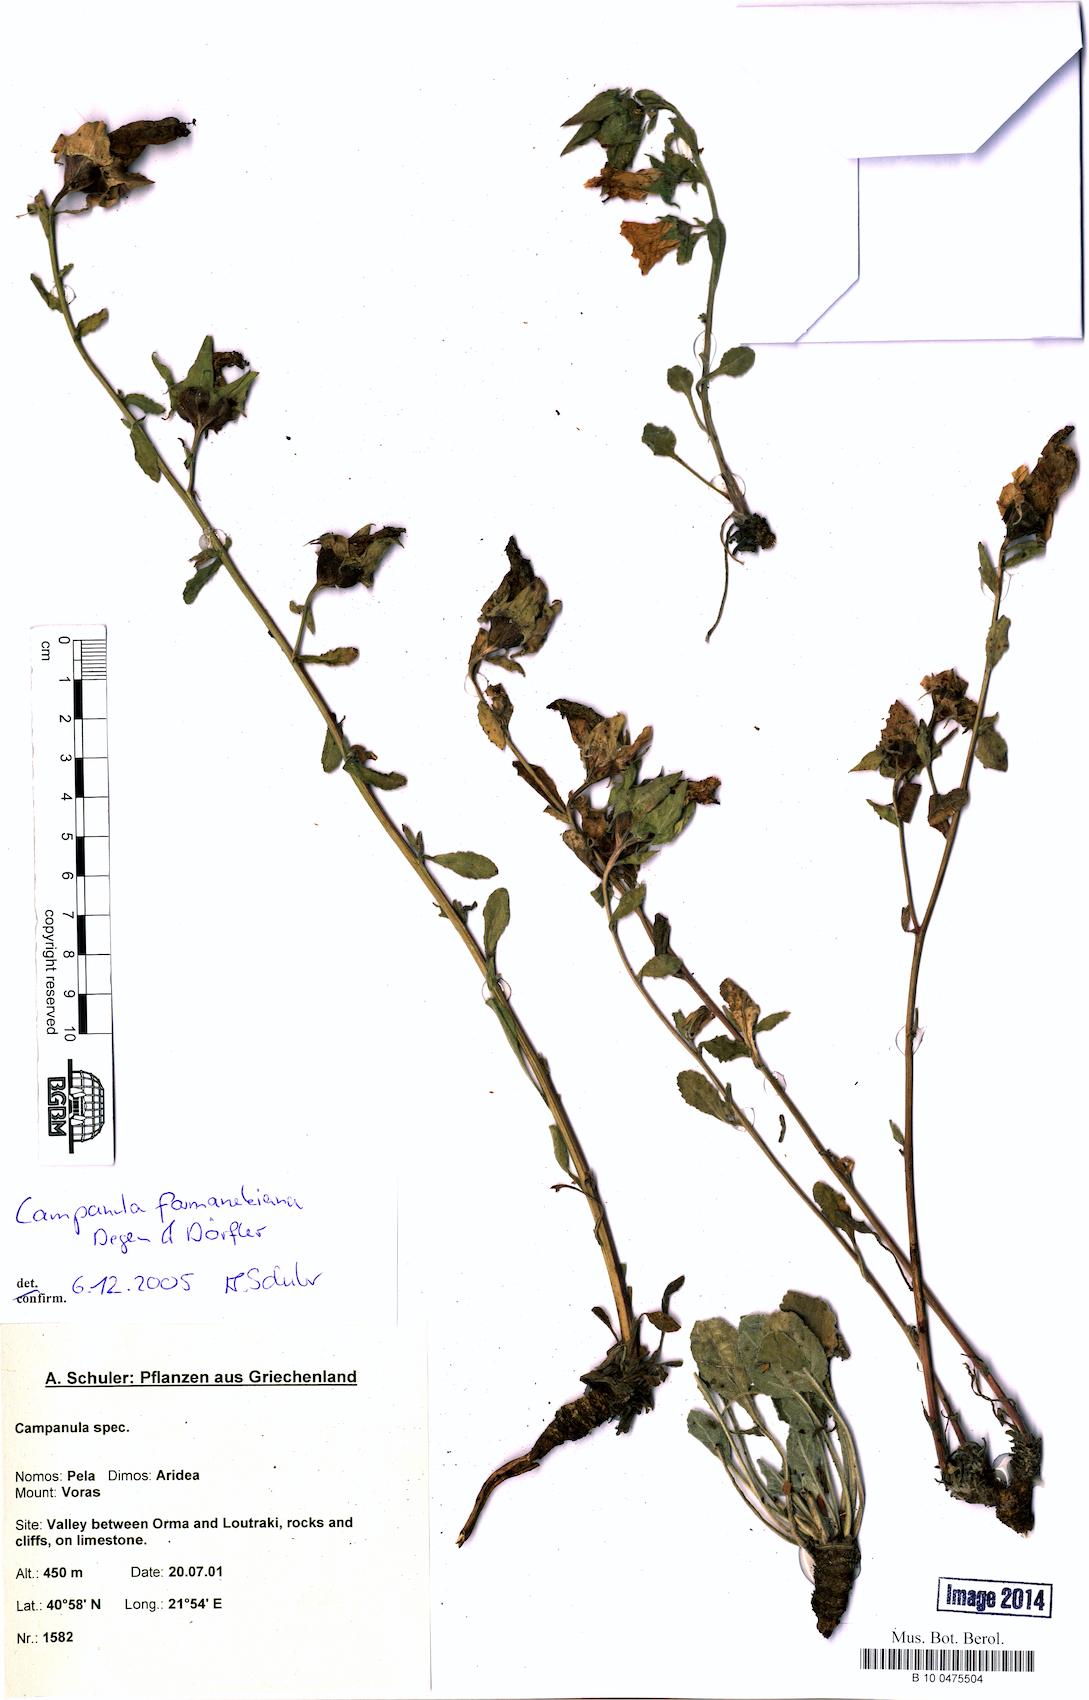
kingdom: Plantae
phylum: Tracheophyta
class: Magnoliopsida
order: Asterales
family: Campanulaceae
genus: Campanula
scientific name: Campanula formanekiana
